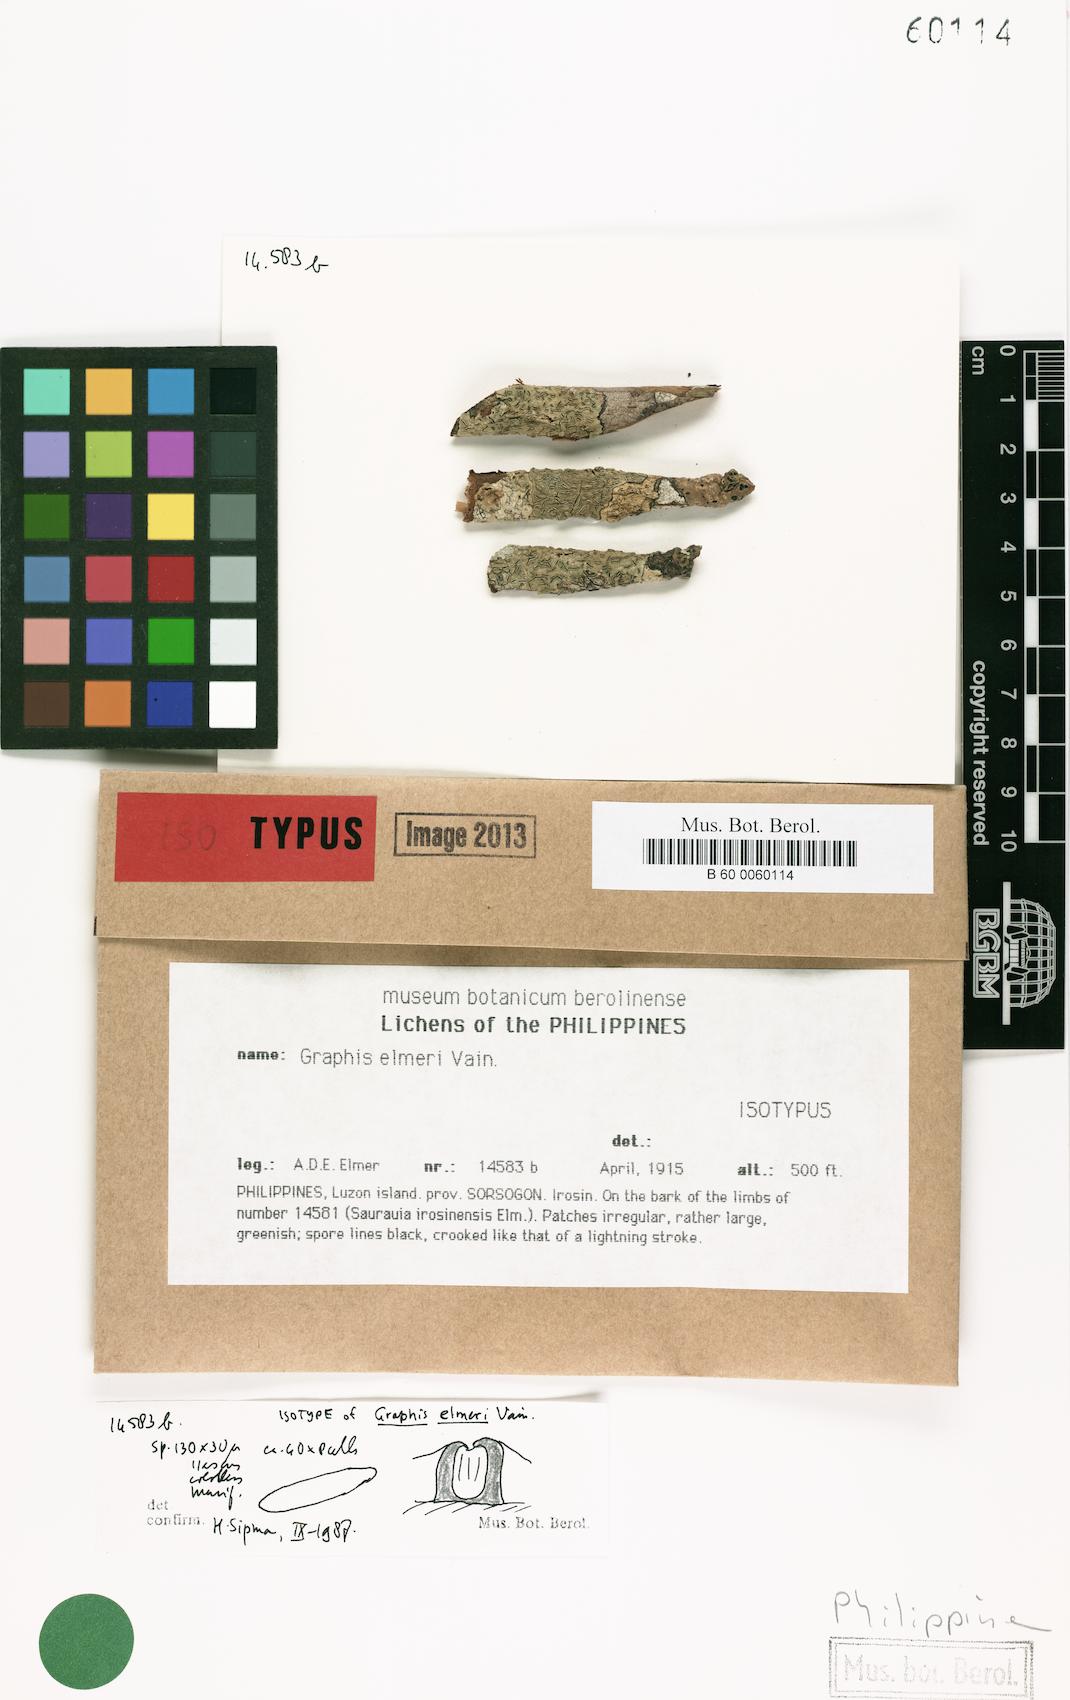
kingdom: Fungi
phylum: Ascomycota
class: Lecanoromycetes
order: Ostropales
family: Graphidaceae
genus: Allographa
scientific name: Allographa elmeri
